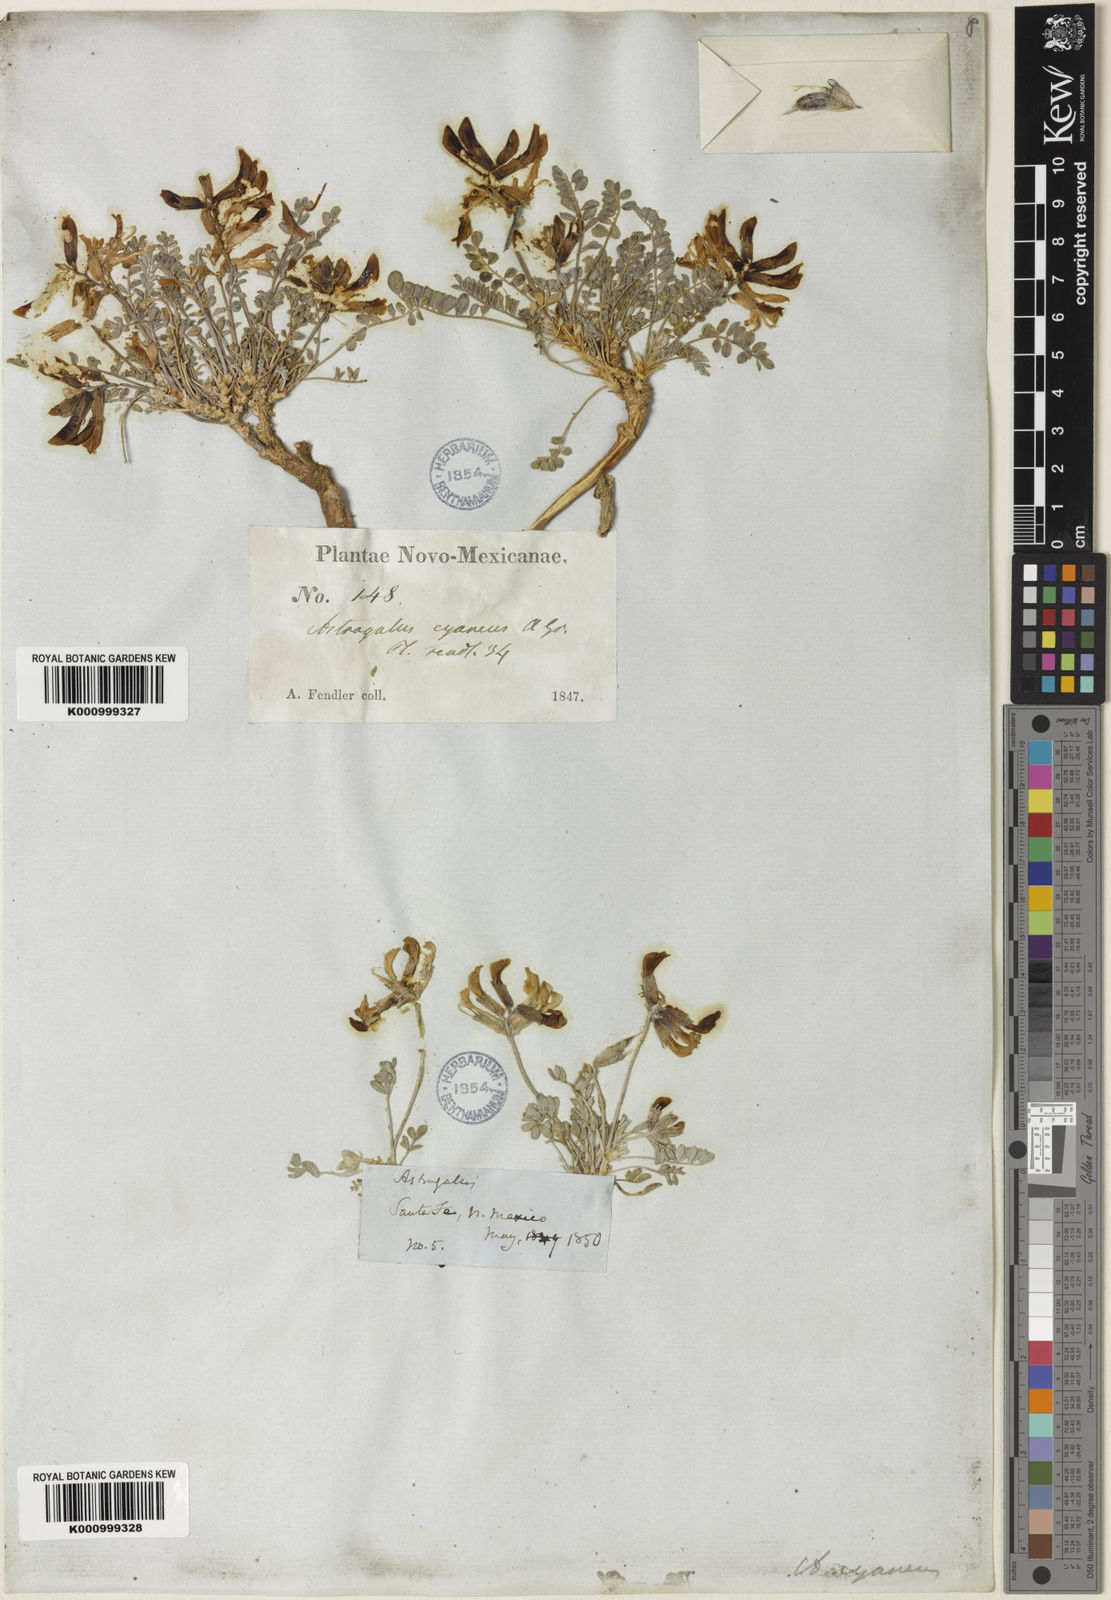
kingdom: Plantae
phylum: Tracheophyta
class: Magnoliopsida
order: Fabales
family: Fabaceae
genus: Astragalus
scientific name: Astragalus shortianus
